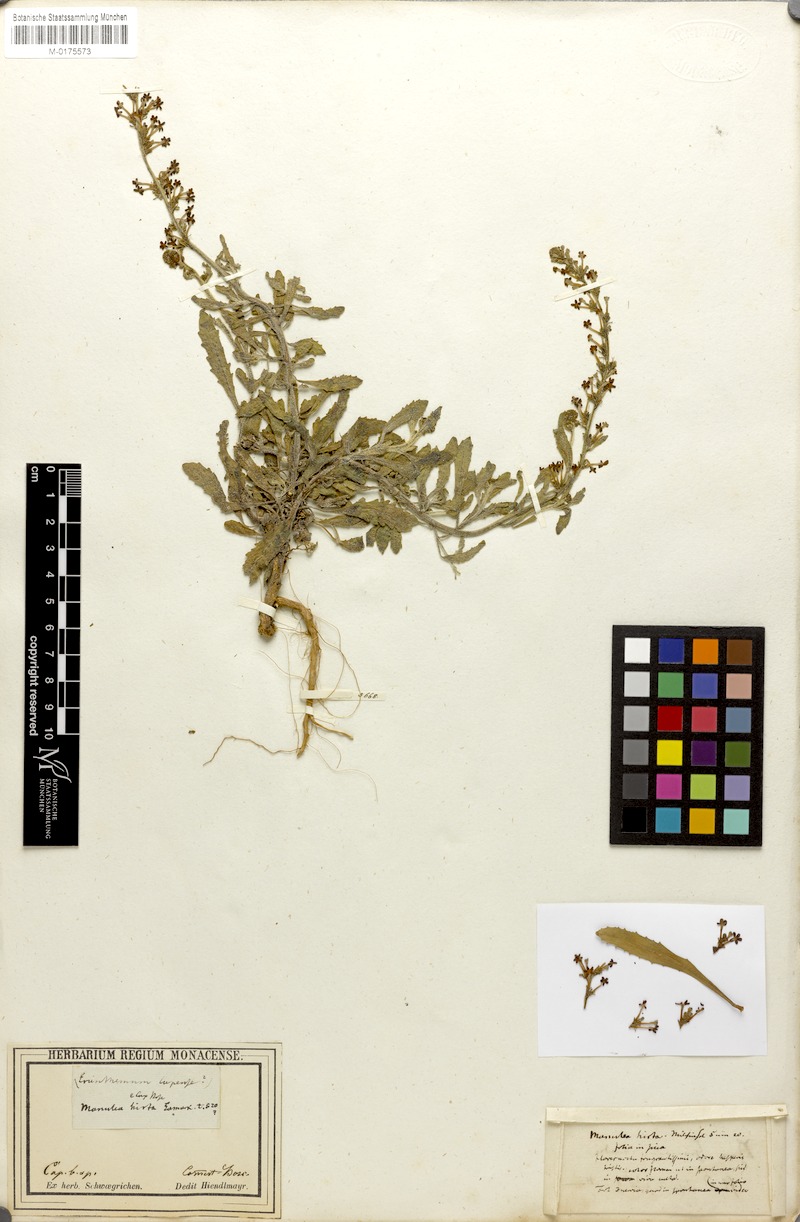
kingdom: Plantae
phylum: Tracheophyta
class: Magnoliopsida
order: Lamiales
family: Scrophulariaceae
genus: Manulea
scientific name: Manulea rubra
